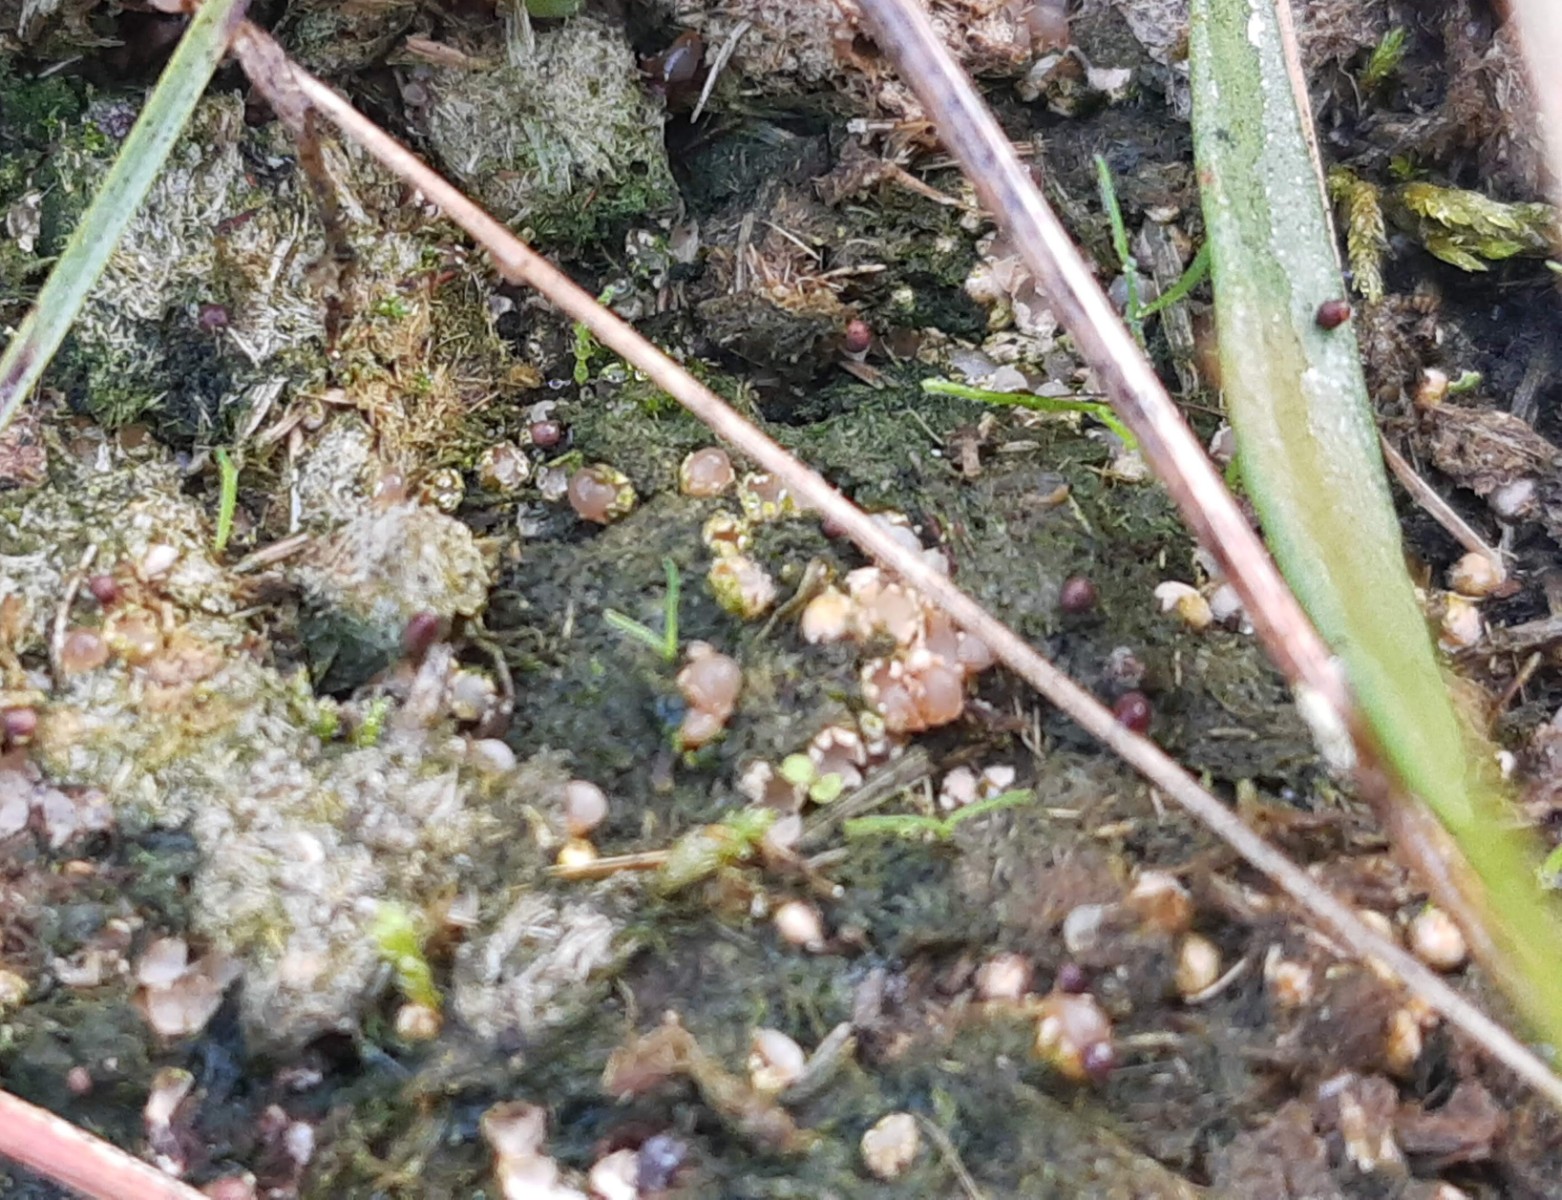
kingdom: Fungi
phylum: Basidiomycota
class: Agaricomycetes
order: Geastrales
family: Geastraceae
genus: Sphaerobolus
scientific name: Sphaerobolus stellatus
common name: bombekaster
